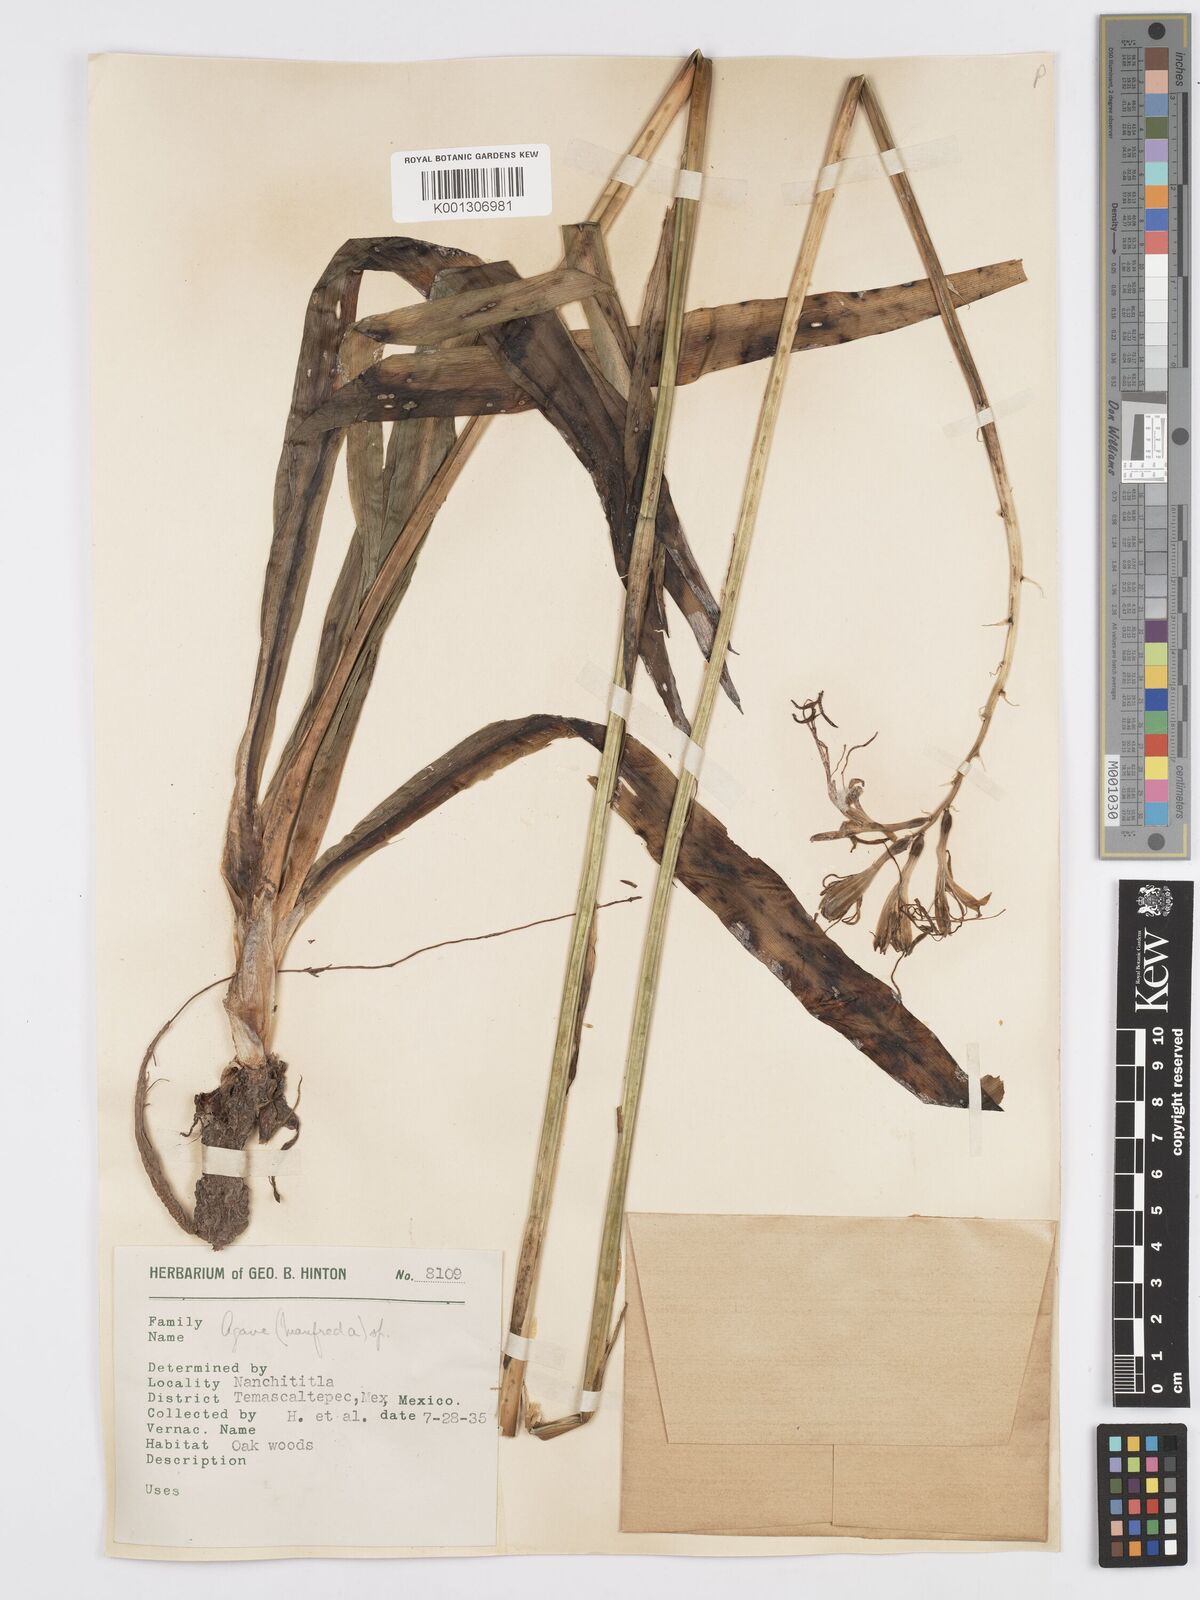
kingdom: Plantae
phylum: Tracheophyta
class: Liliopsida
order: Asparagales
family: Asparagaceae
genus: Agave
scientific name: Agave Manfreda spec
